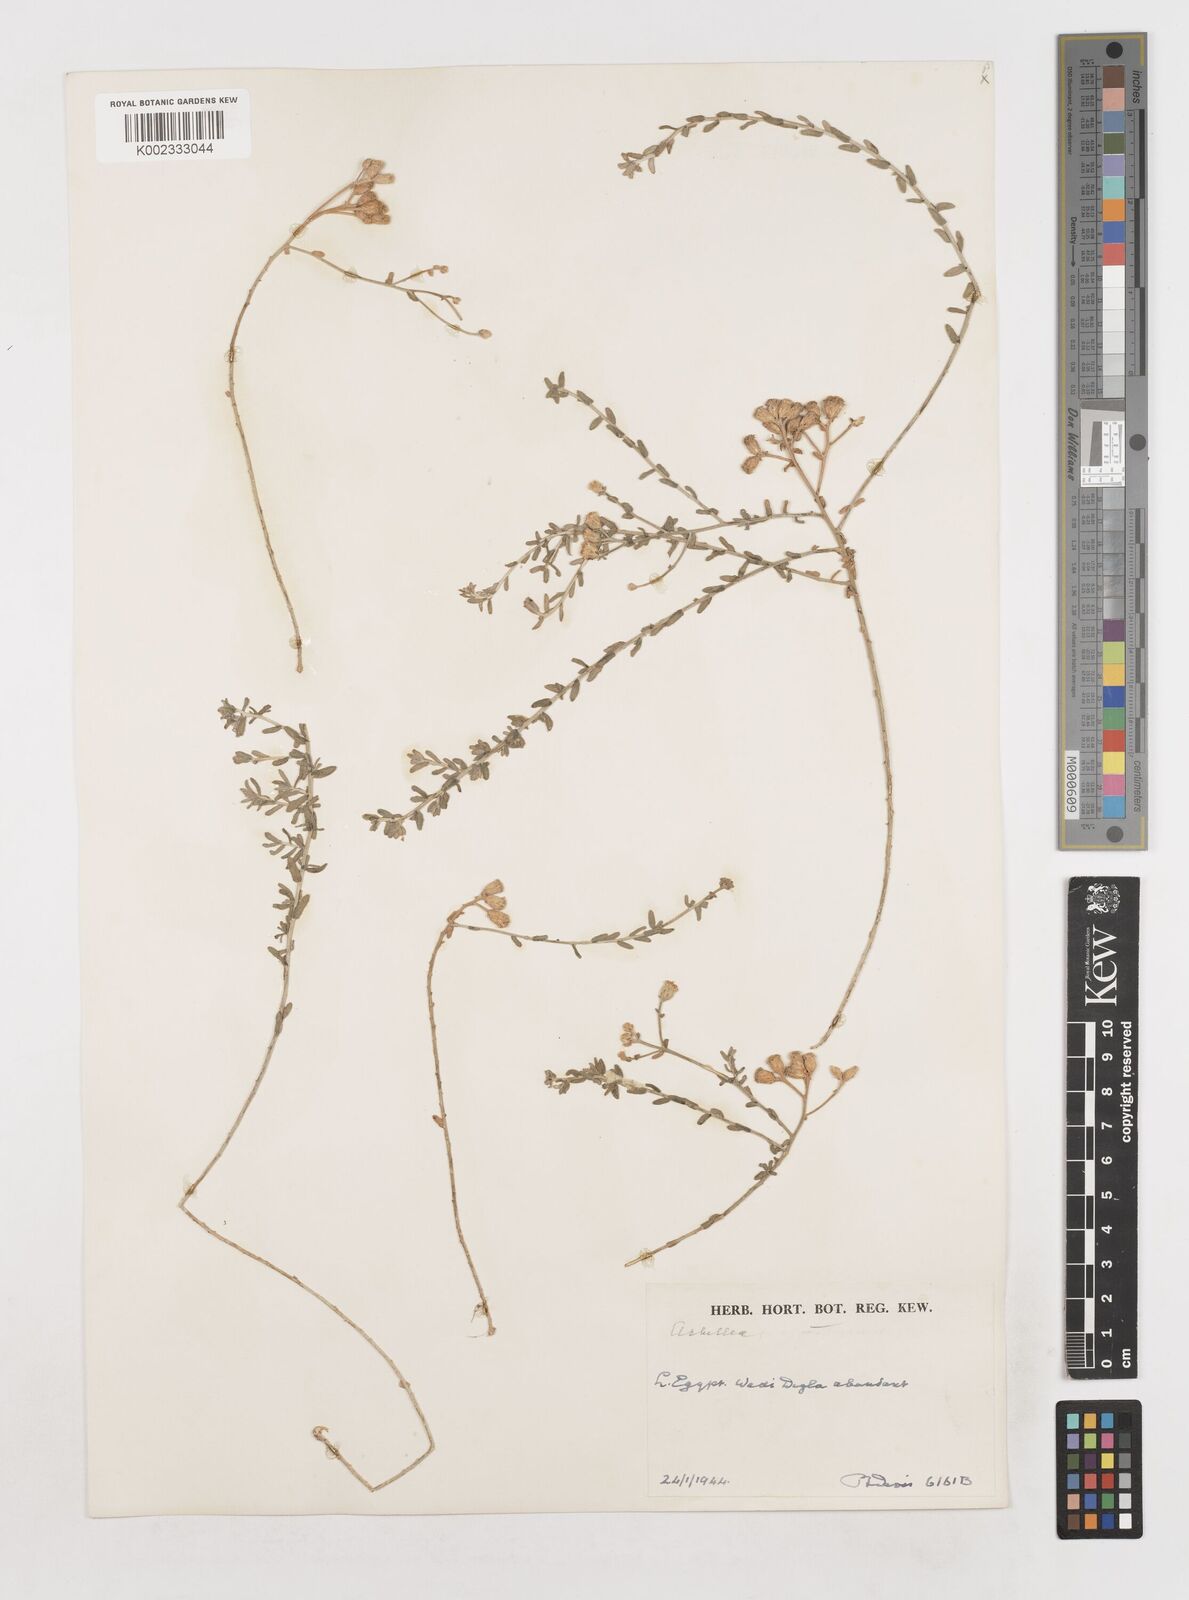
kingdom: Plantae
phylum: Tracheophyta
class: Magnoliopsida
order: Asterales
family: Asteraceae
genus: Achillea
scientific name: Achillea
